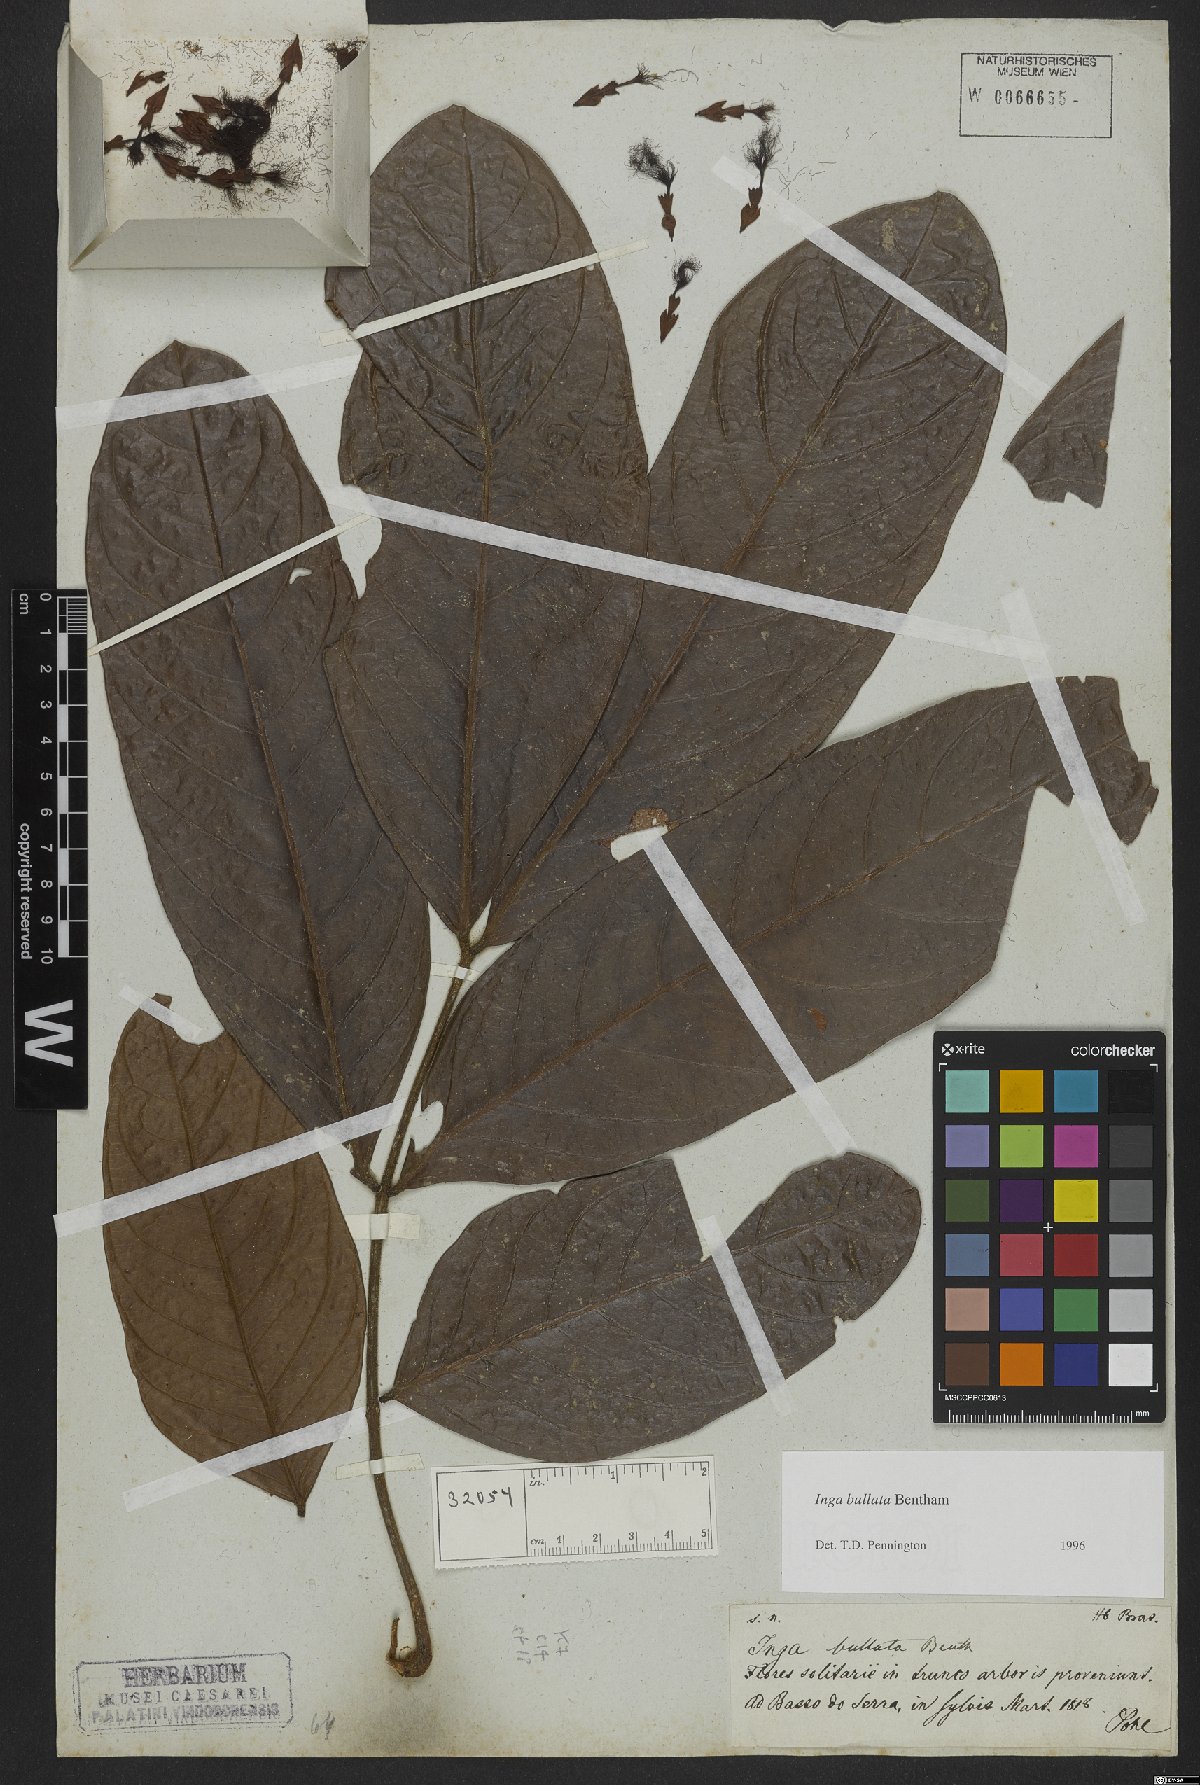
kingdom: Plantae
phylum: Tracheophyta
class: Magnoliopsida
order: Fabales
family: Fabaceae
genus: Inga
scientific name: Inga bullata
